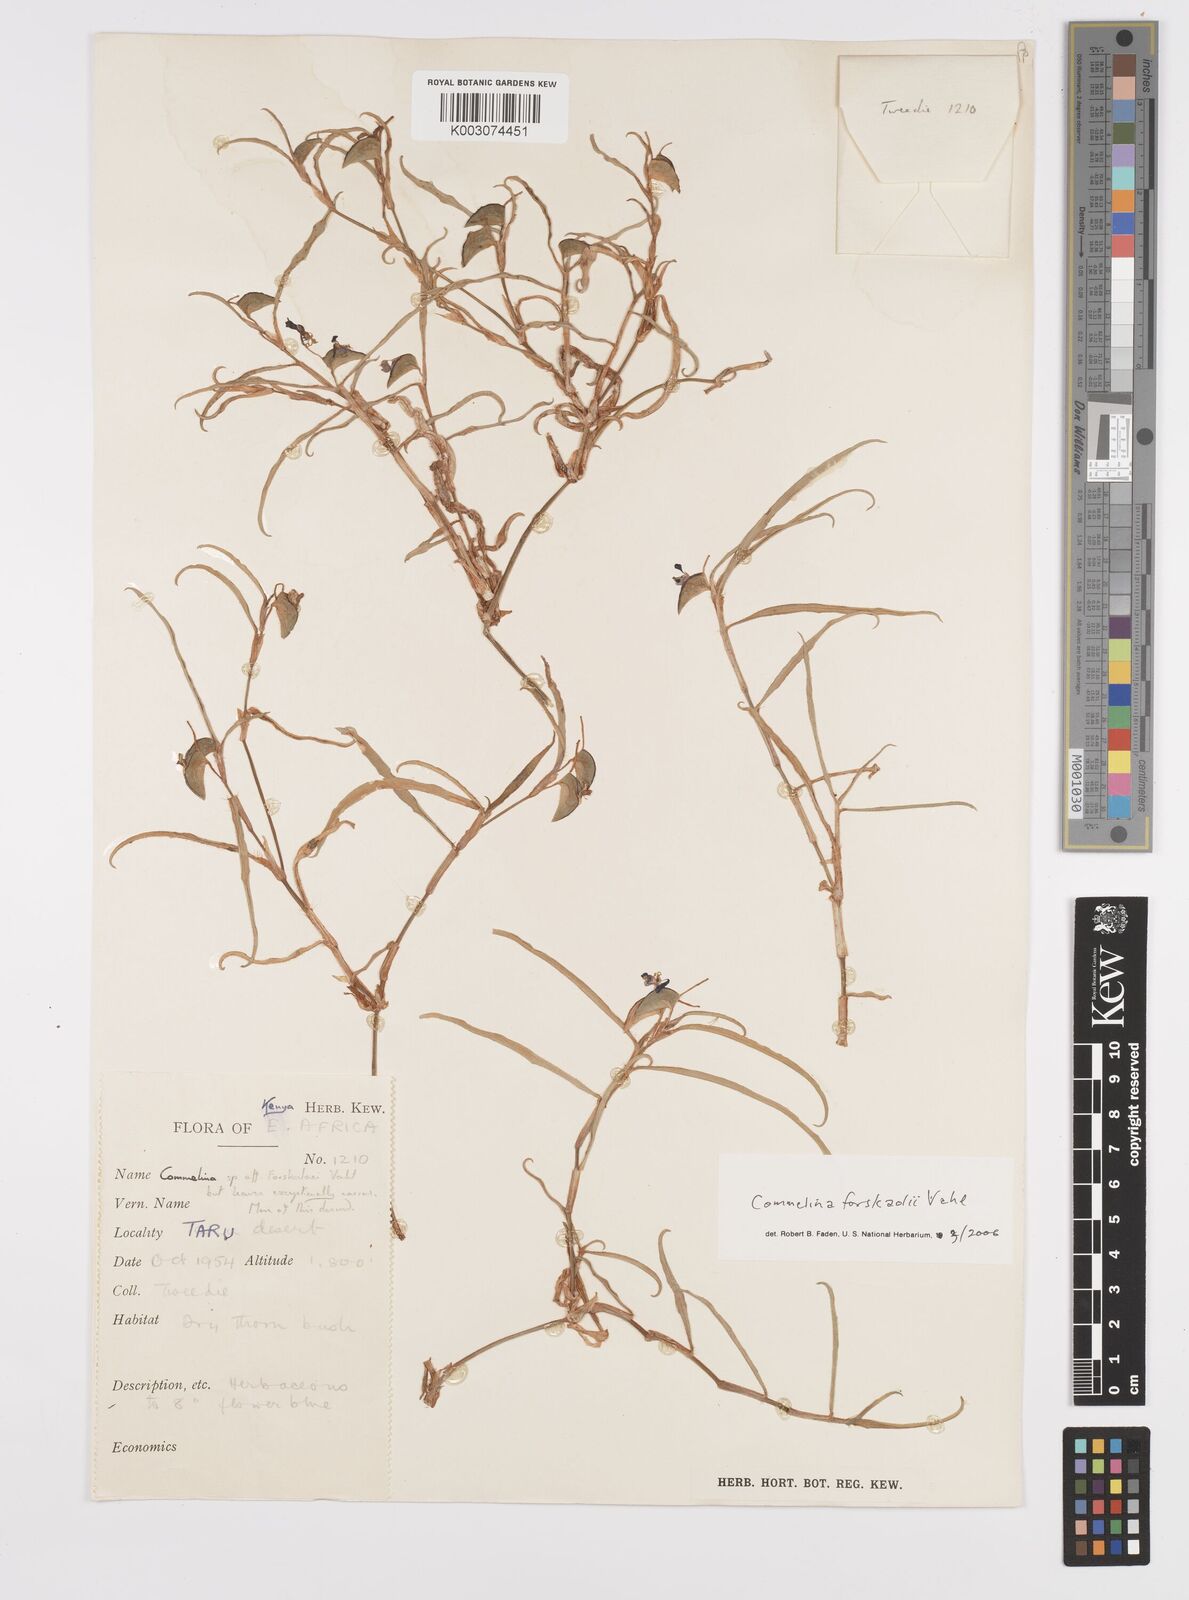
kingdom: Plantae
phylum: Tracheophyta
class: Liliopsida
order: Commelinales
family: Commelinaceae
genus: Commelina
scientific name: Commelina
